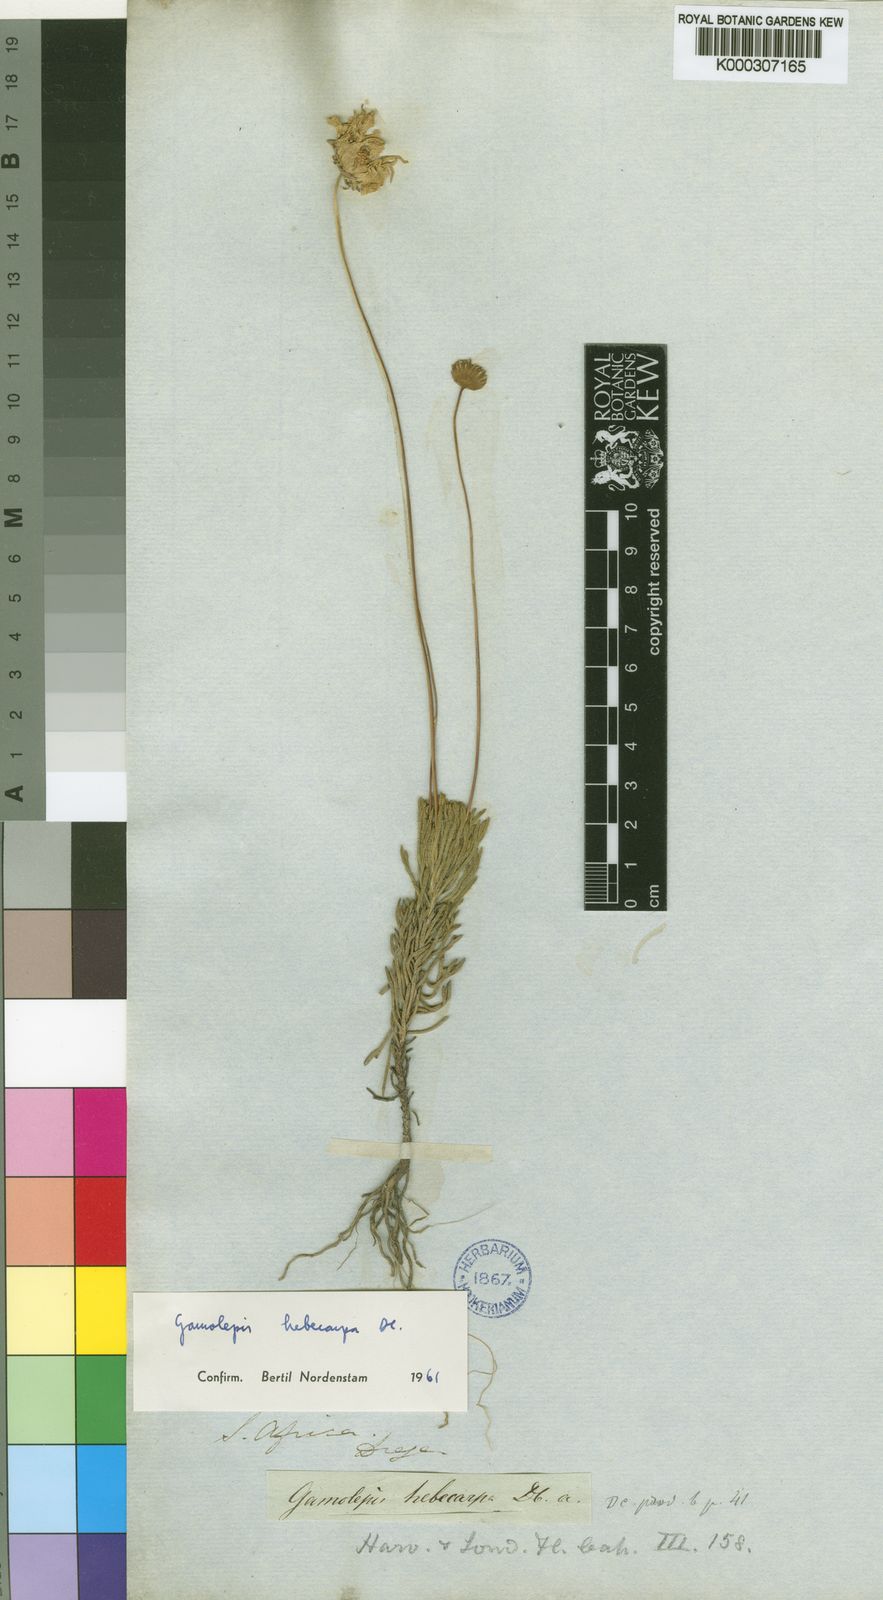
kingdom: Plantae
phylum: Tracheophyta
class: Magnoliopsida
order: Asterales
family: Asteraceae
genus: Euryops
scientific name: Euryops hebecarpus
